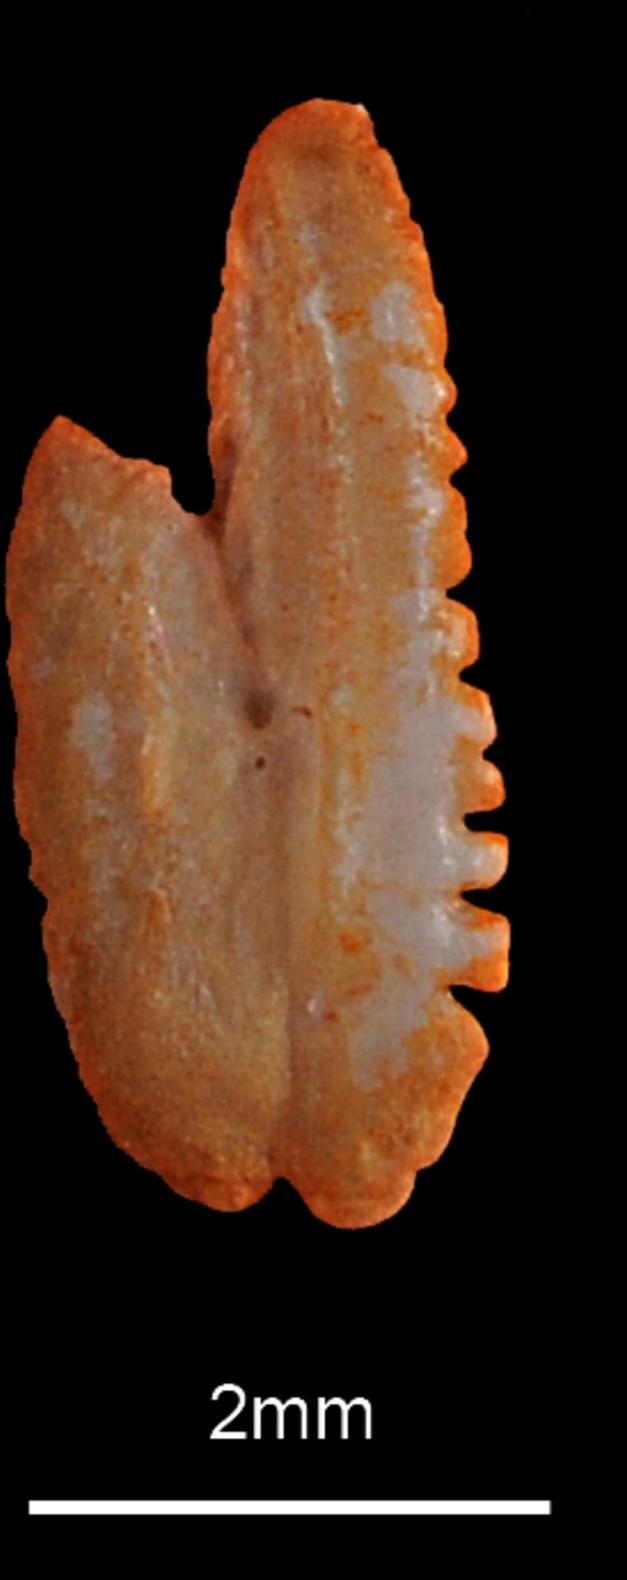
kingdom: Animalia
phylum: Chordata
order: Clupeiformes
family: Clupeidae
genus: Clupea
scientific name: Clupea harengus
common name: Herring
